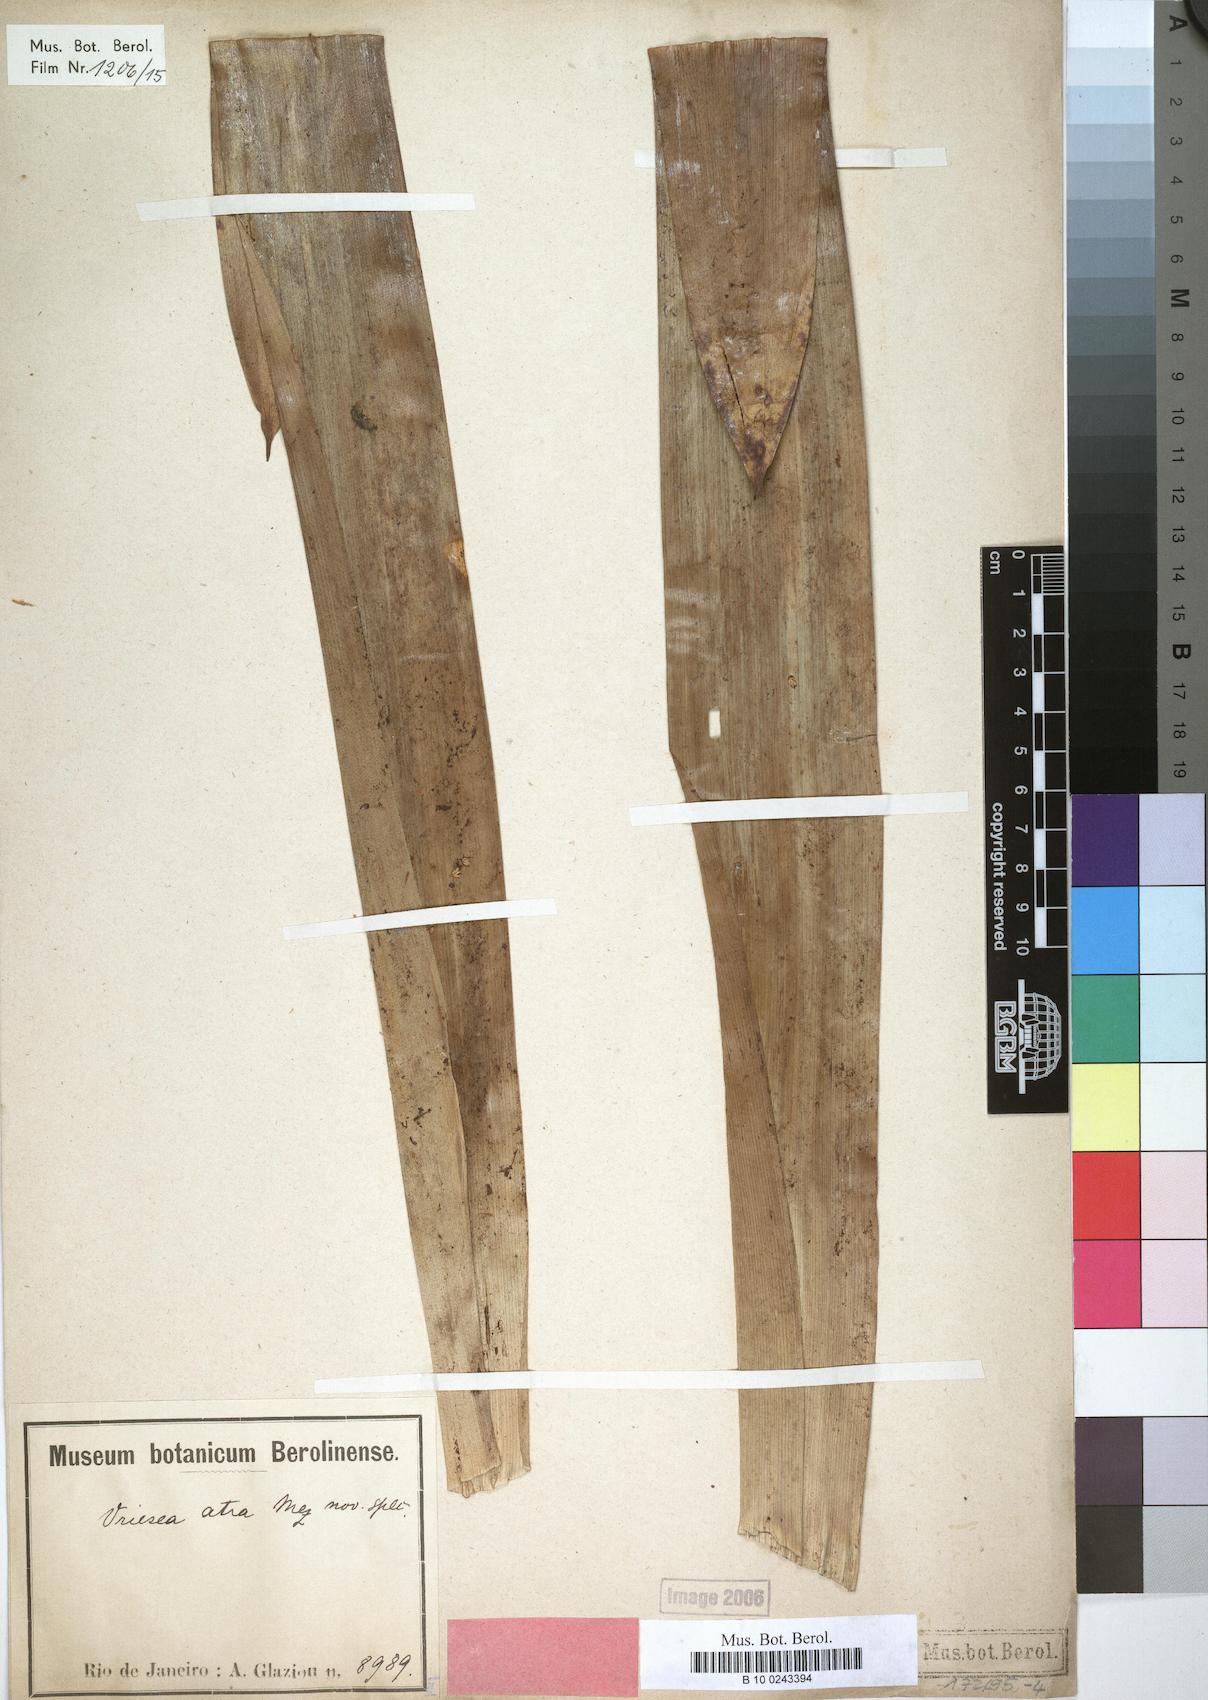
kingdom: Plantae
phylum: Tracheophyta
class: Liliopsida
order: Poales
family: Bromeliaceae
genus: Vriesea
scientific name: Vriesea atra
